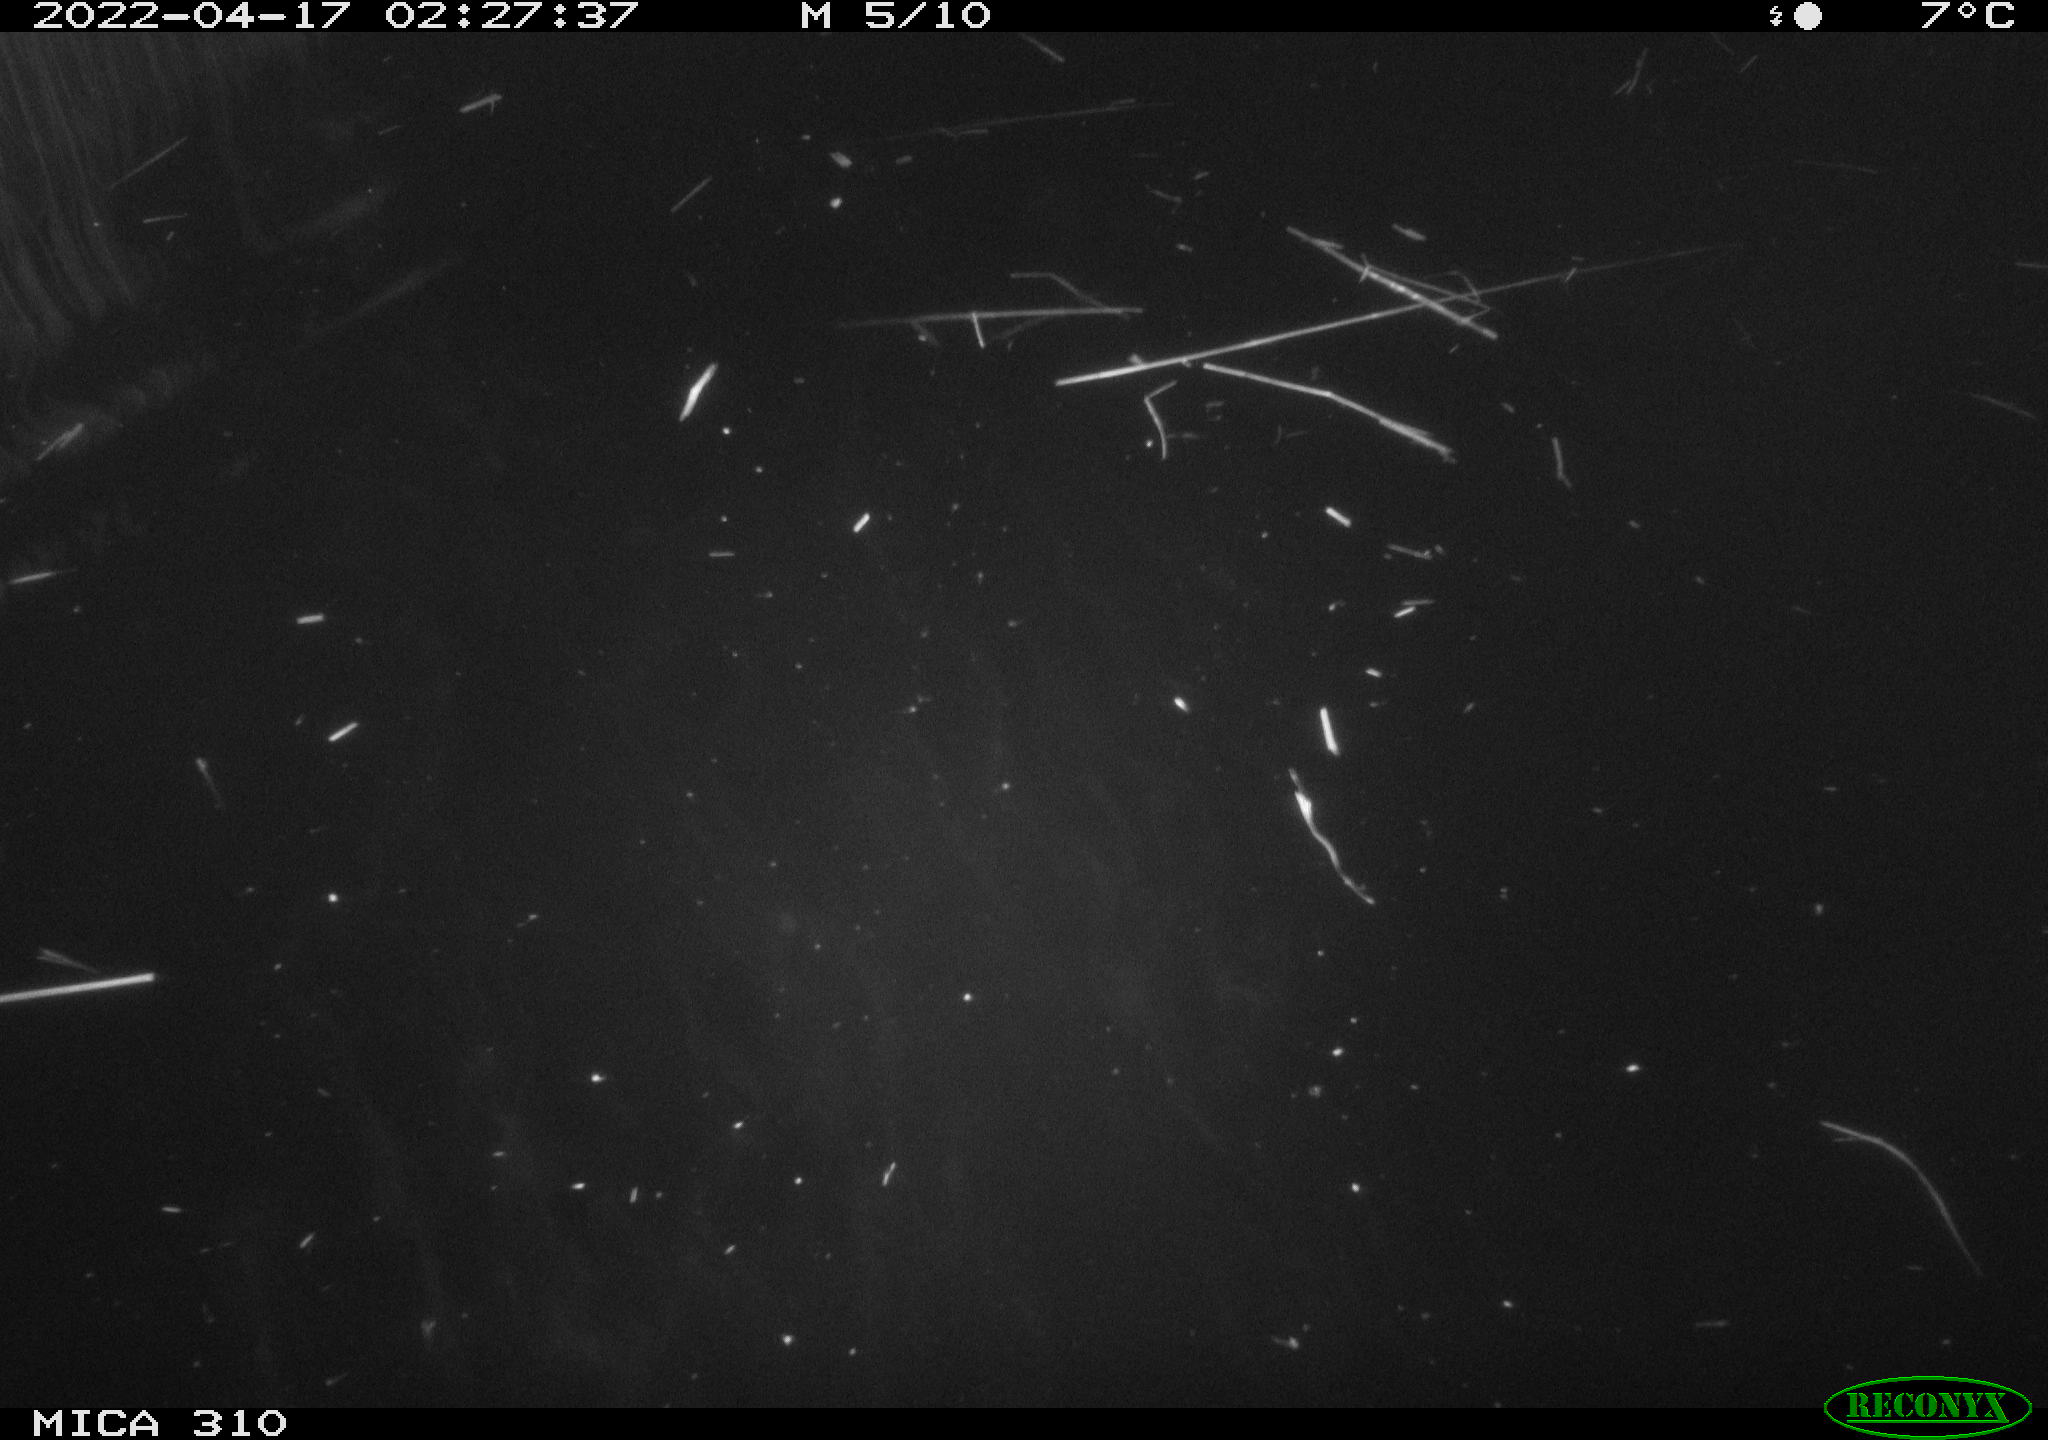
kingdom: Animalia
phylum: Chordata
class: Aves
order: Anseriformes
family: Anatidae
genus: Anas
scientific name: Anas platyrhynchos
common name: Mallard
